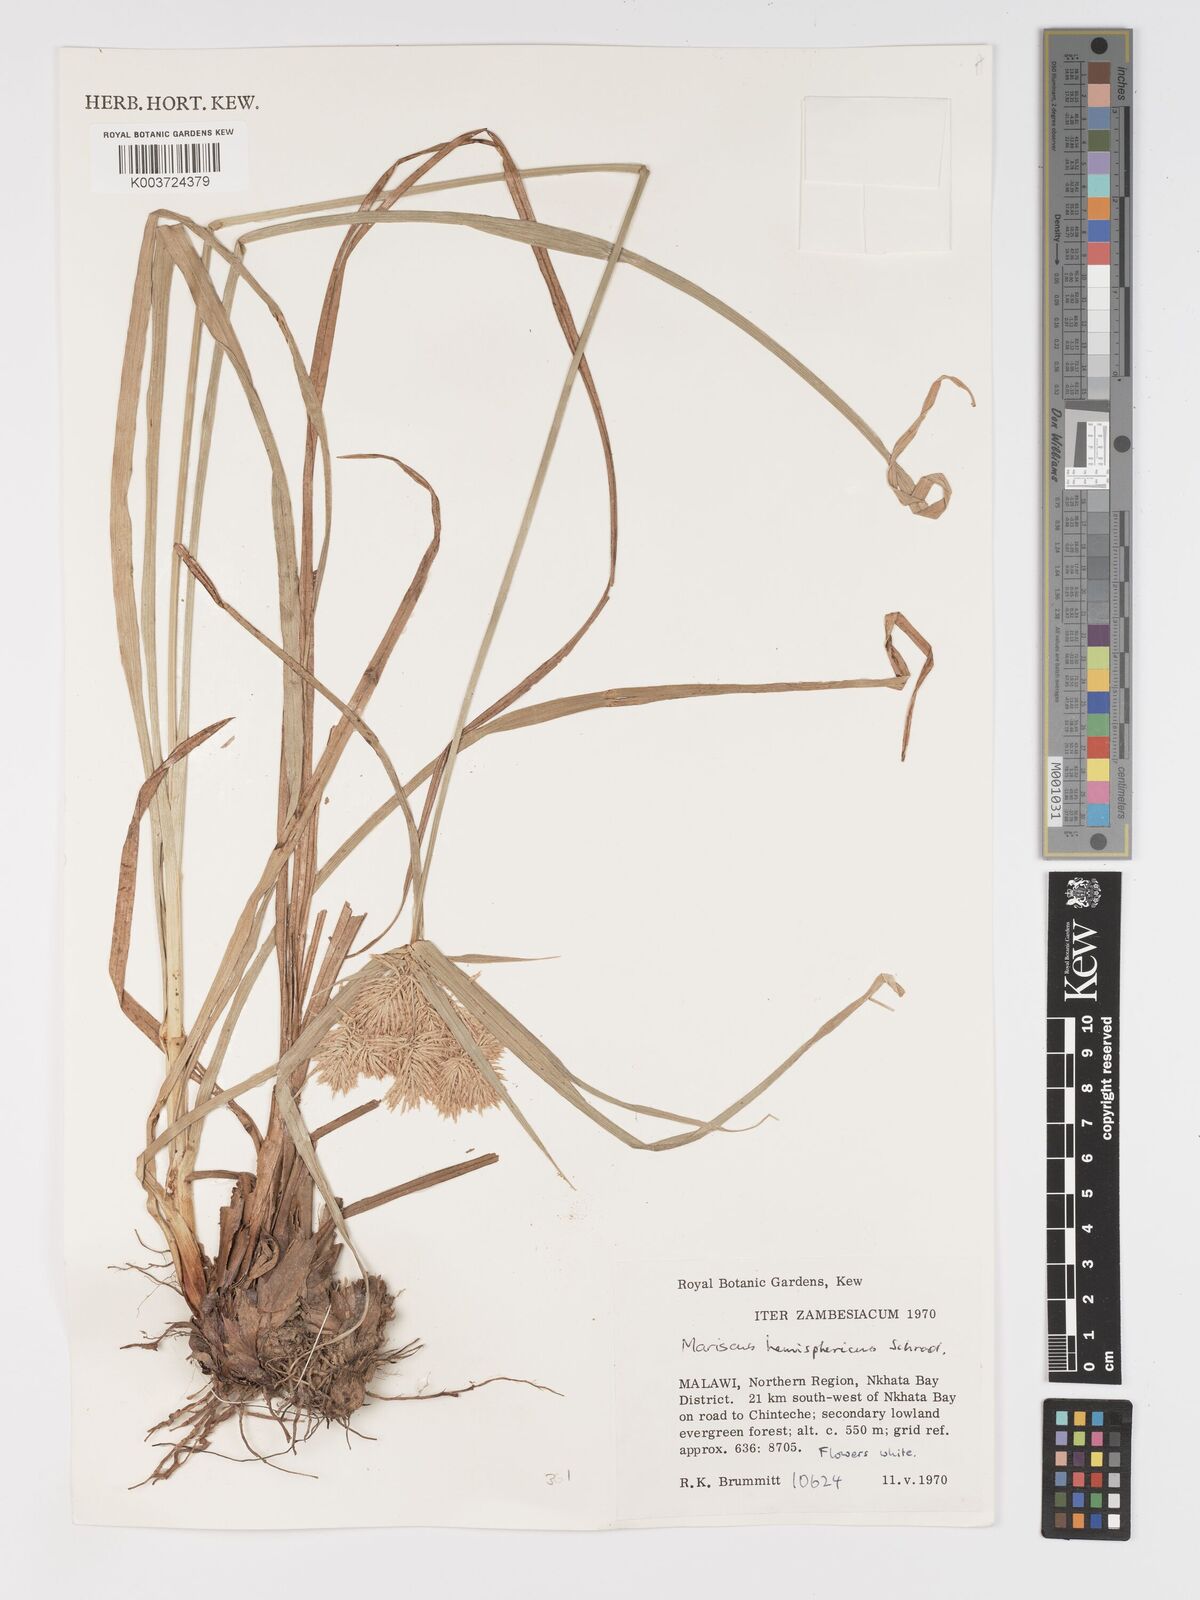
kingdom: Plantae
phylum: Tracheophyta
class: Liliopsida
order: Poales
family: Cyperaceae
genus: Cyperus
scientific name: Cyperus hemisphaericus
